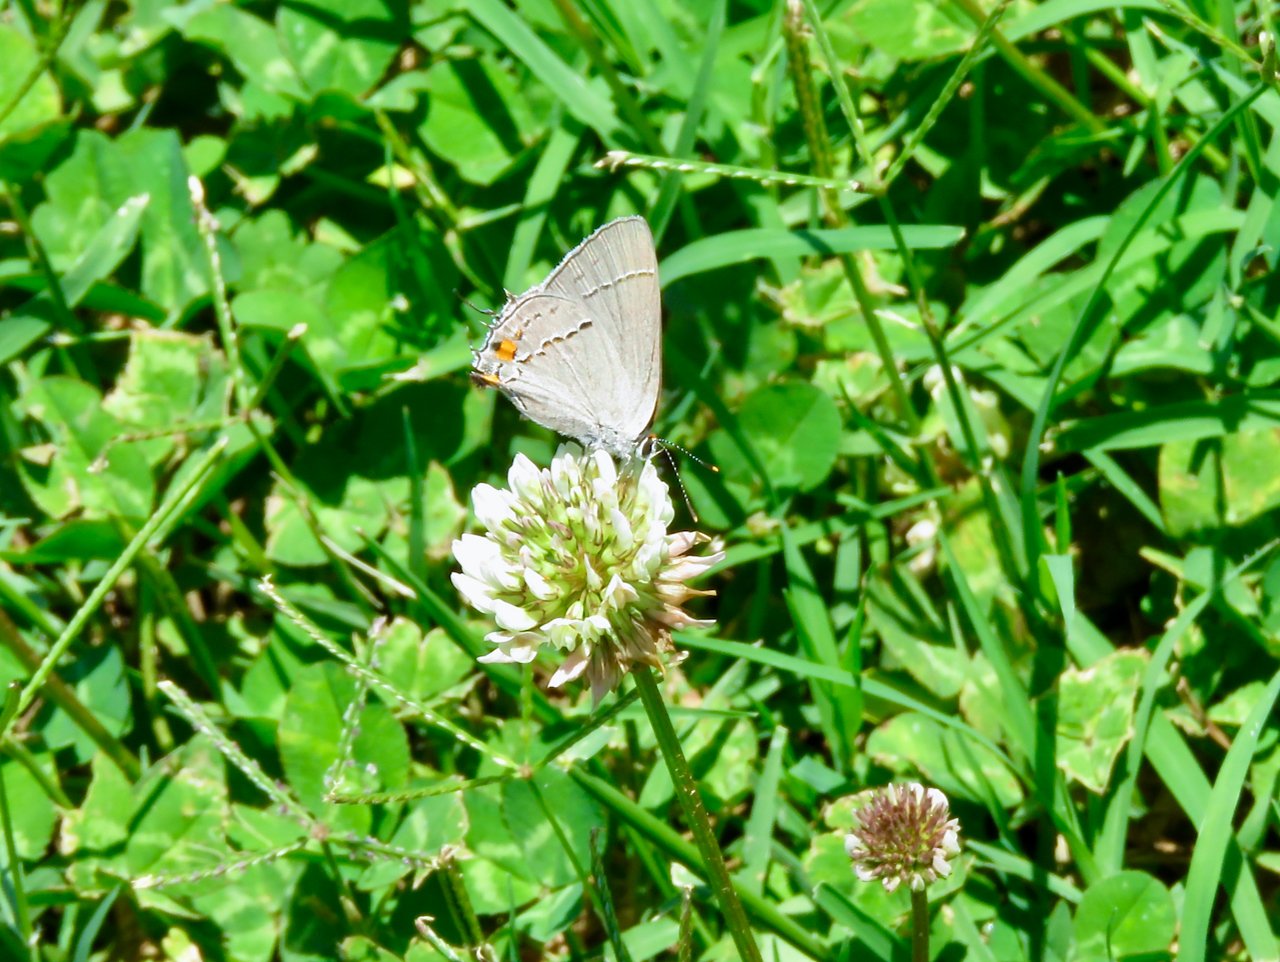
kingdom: Animalia
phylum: Arthropoda
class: Insecta
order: Lepidoptera
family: Lycaenidae
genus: Strymon
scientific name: Strymon melinus
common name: Gray Hairstreak
